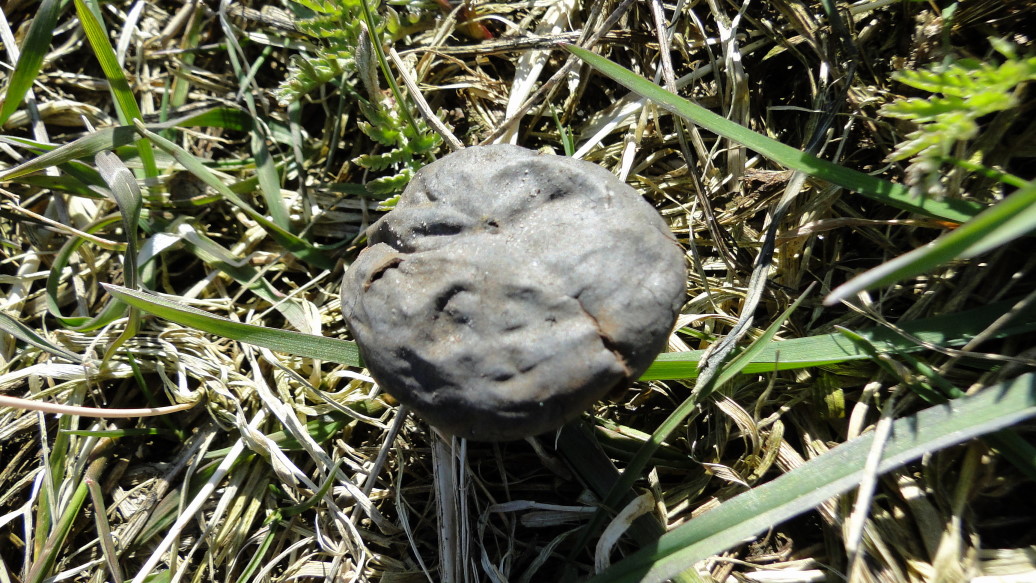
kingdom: Fungi
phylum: Basidiomycota
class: Agaricomycetes
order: Agaricales
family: Lycoperdaceae
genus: Bovista
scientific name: Bovista plumbea
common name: blygrå bovist
